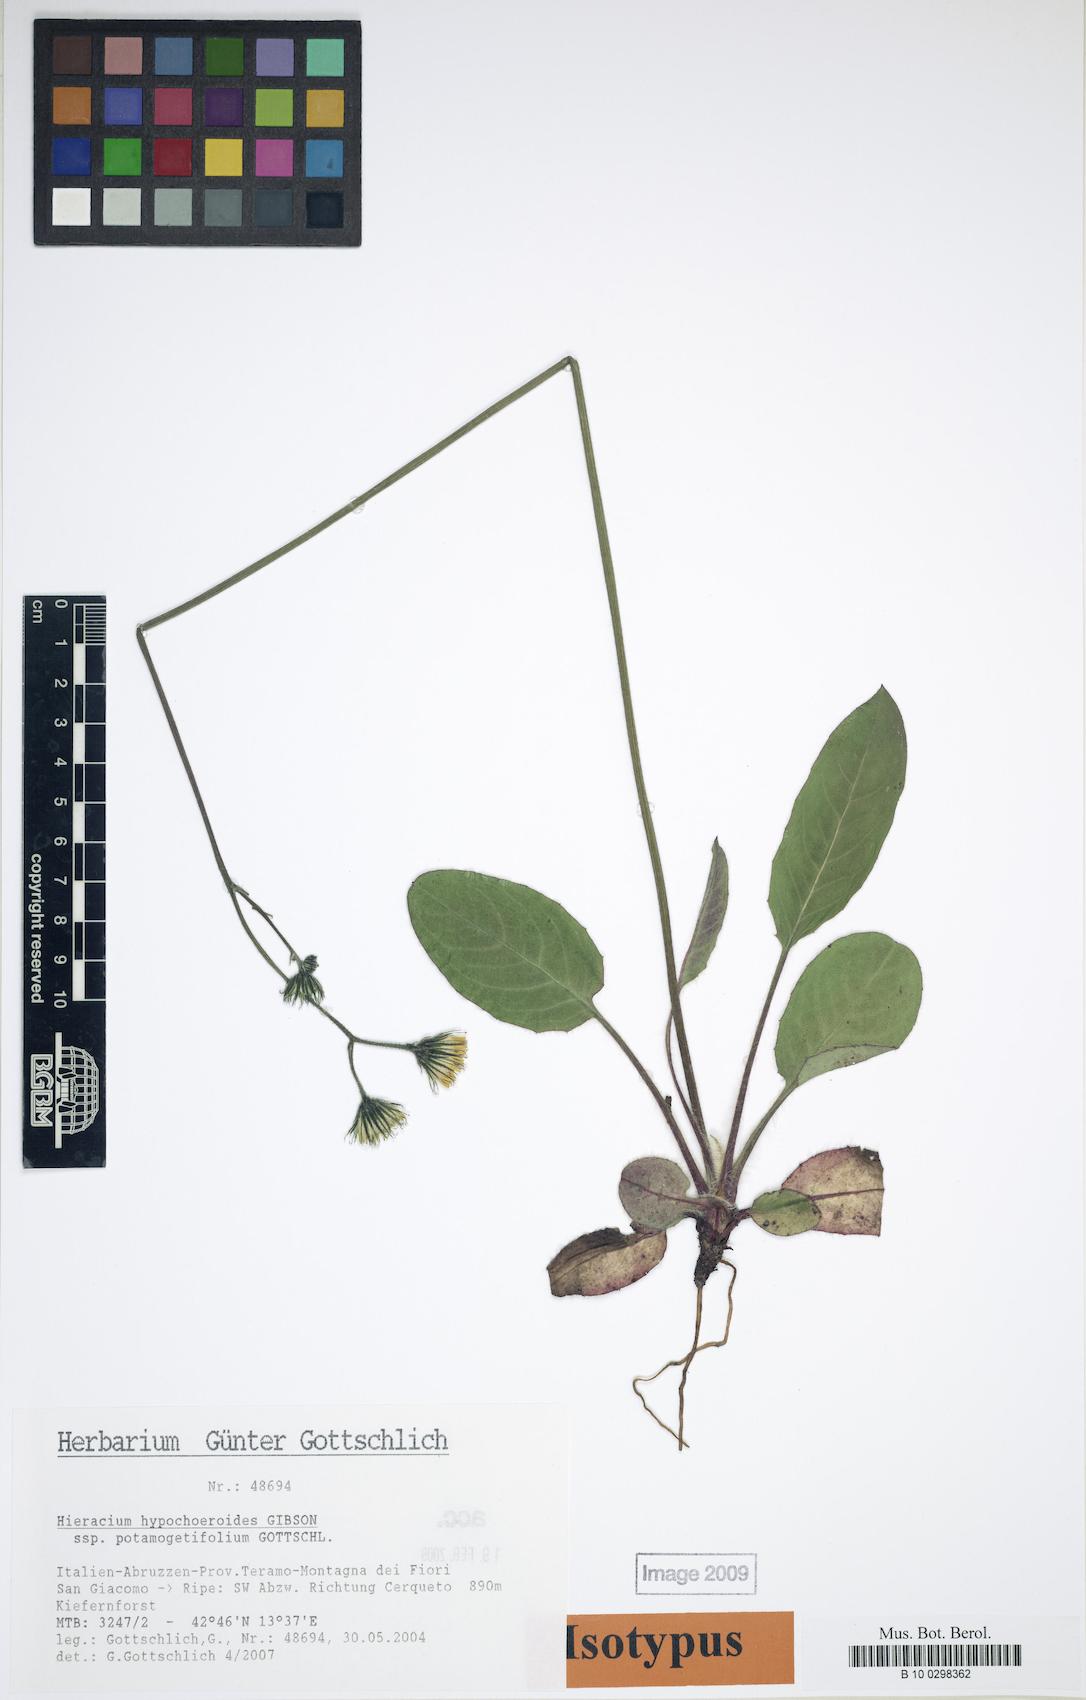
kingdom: Plantae
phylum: Tracheophyta
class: Magnoliopsida
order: Asterales
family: Asteraceae
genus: Hieracium
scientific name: Hieracium hypochoeroides
